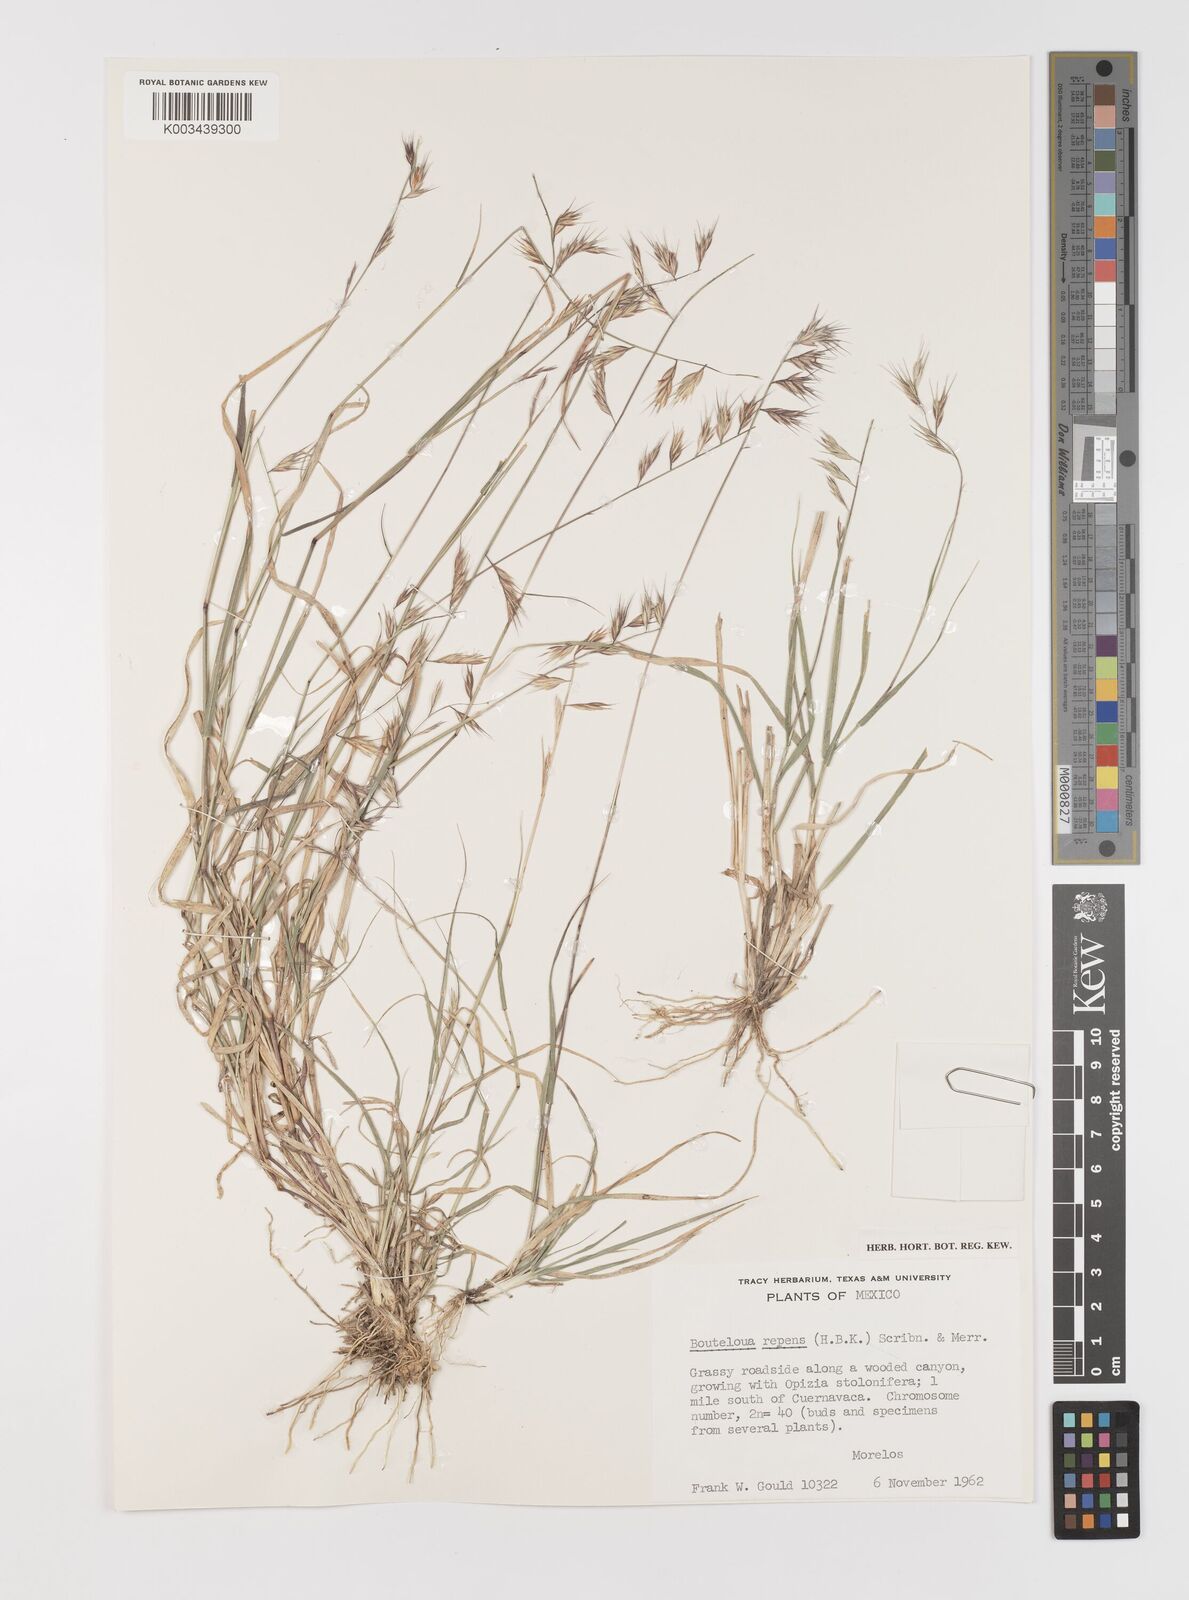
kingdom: Plantae
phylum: Tracheophyta
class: Liliopsida
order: Poales
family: Poaceae
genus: Bouteloua
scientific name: Bouteloua repens
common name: Slender grama
